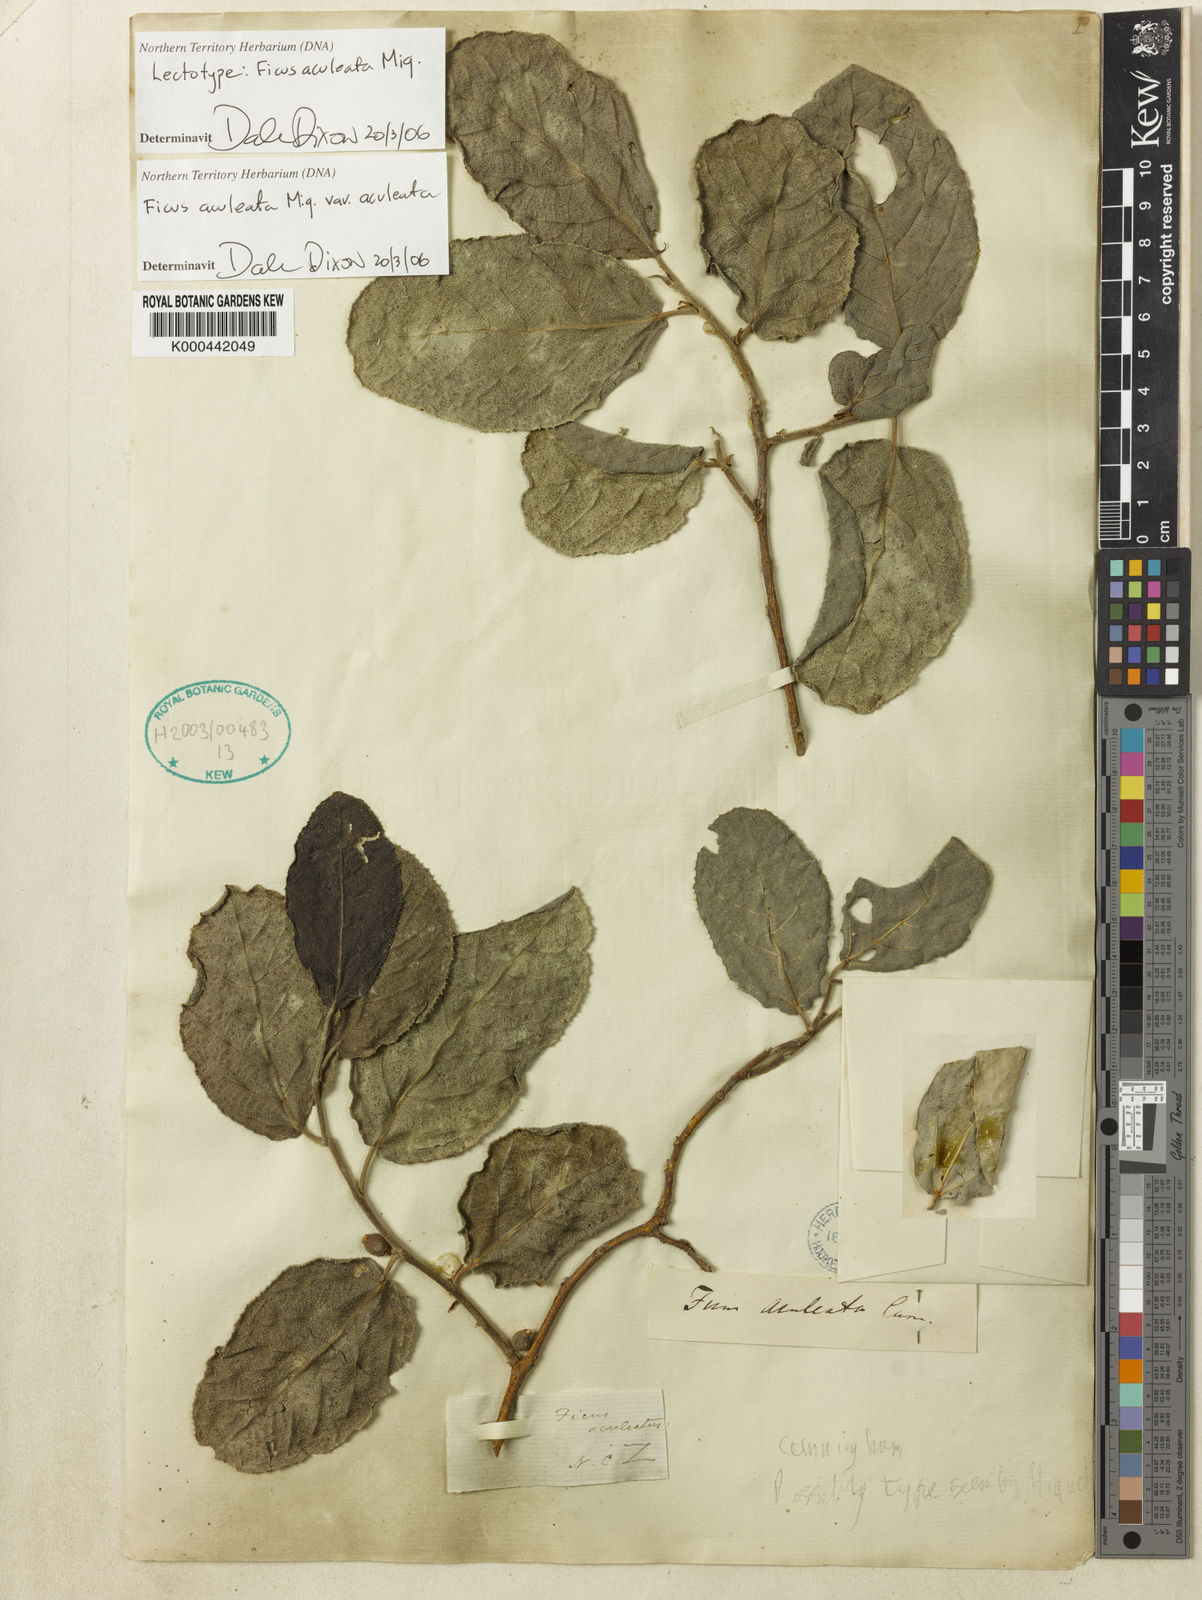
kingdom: Plantae
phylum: Tracheophyta
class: Magnoliopsida
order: Rosales
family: Moraceae
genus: Ficus
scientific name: Ficus opposita
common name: Figwood
